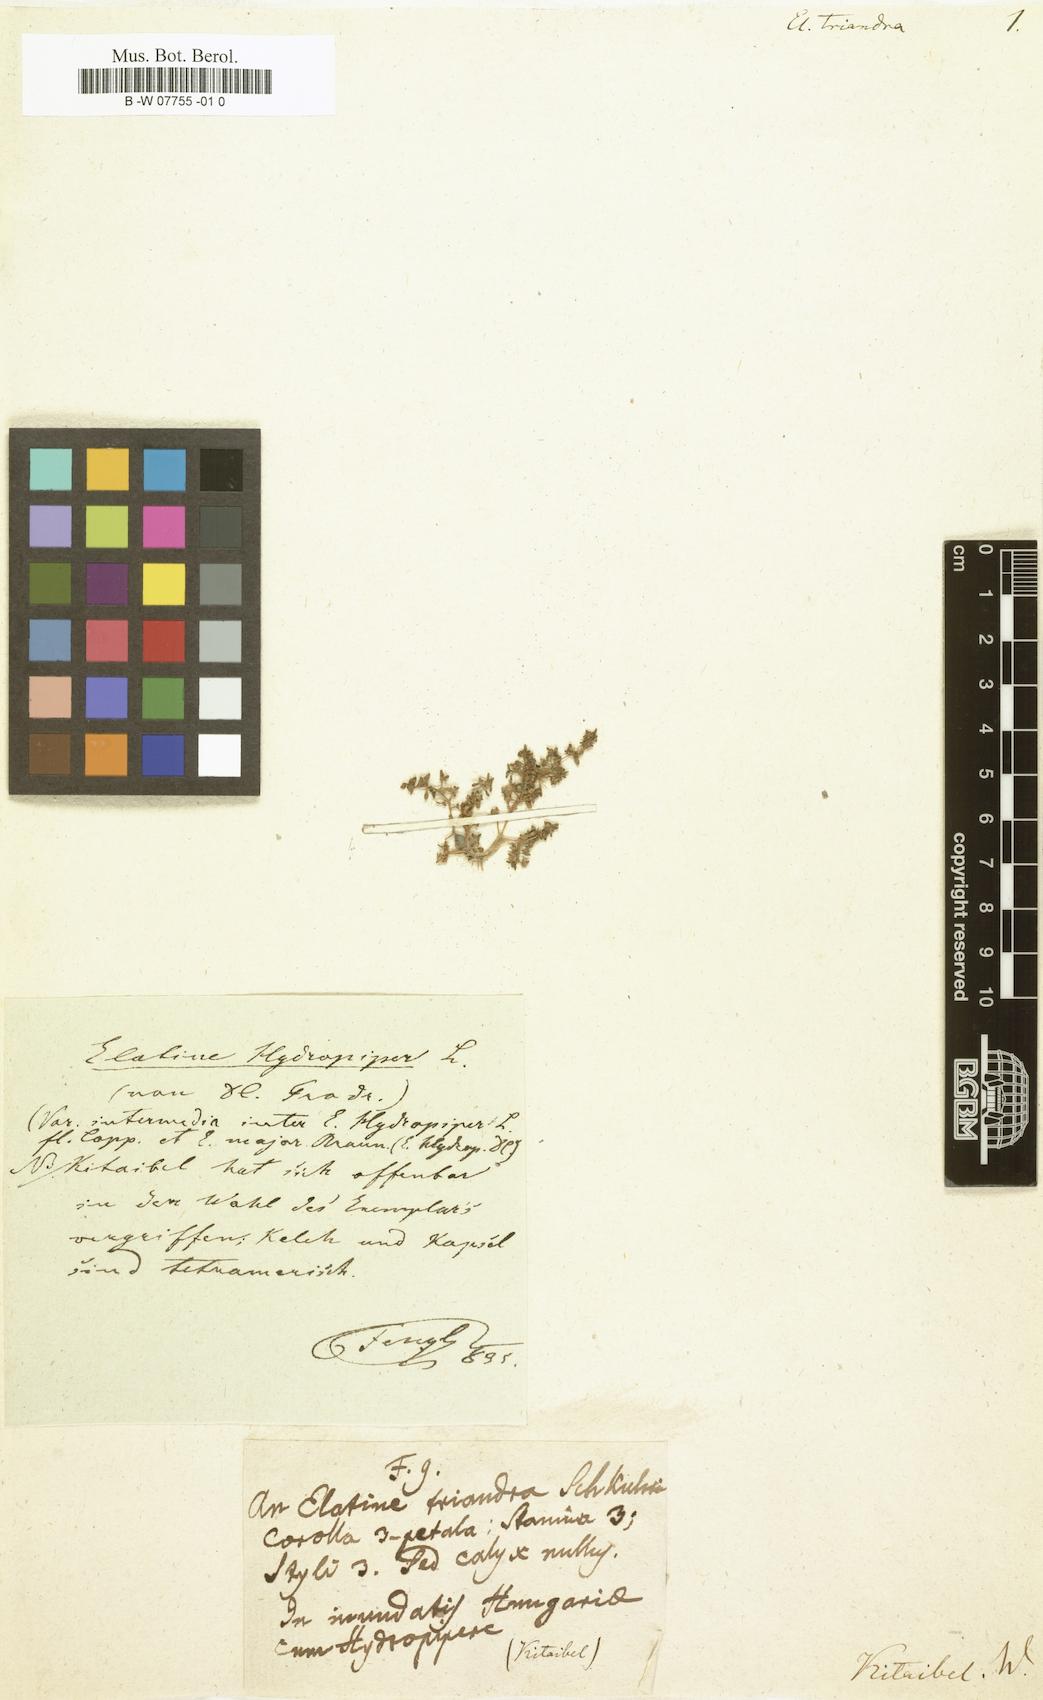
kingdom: Plantae
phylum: Tracheophyta
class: Magnoliopsida
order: Malpighiales
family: Elatinaceae
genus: Elatine
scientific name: Elatine triandra
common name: Three-stamened waterwort
